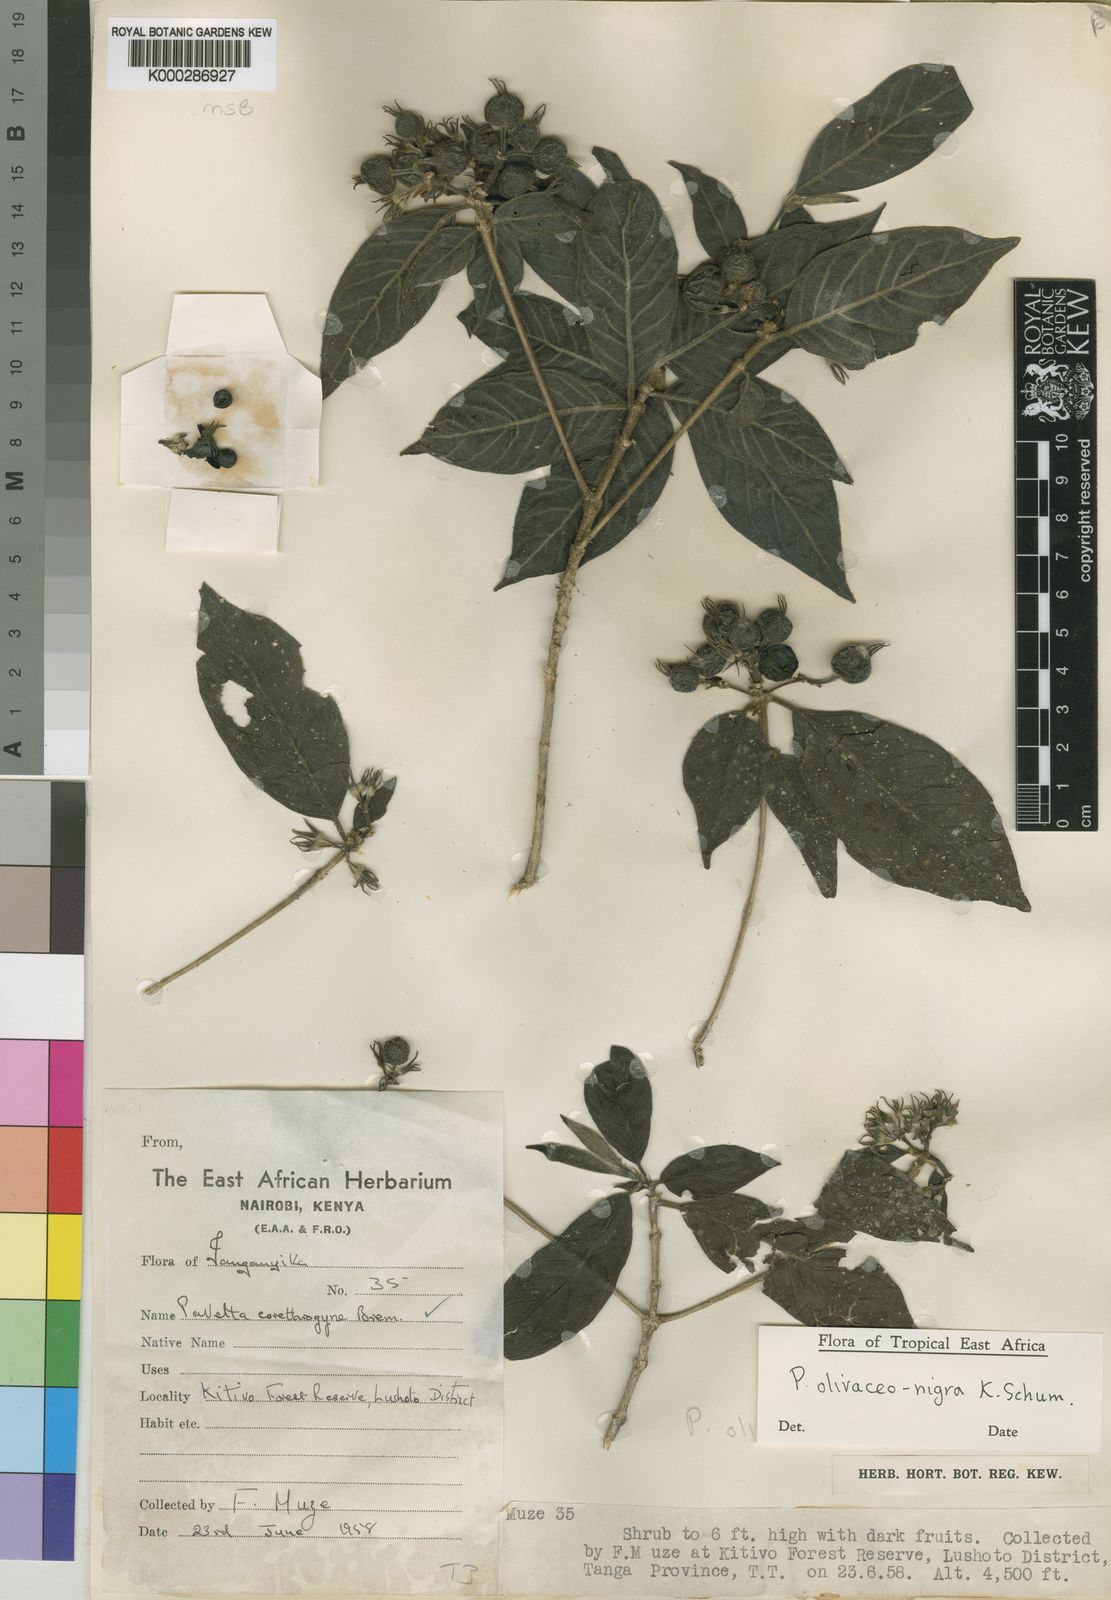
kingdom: Plantae
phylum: Tracheophyta
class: Magnoliopsida
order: Gentianales
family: Rubiaceae
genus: Pavetta
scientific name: Pavetta olivaceonigra
